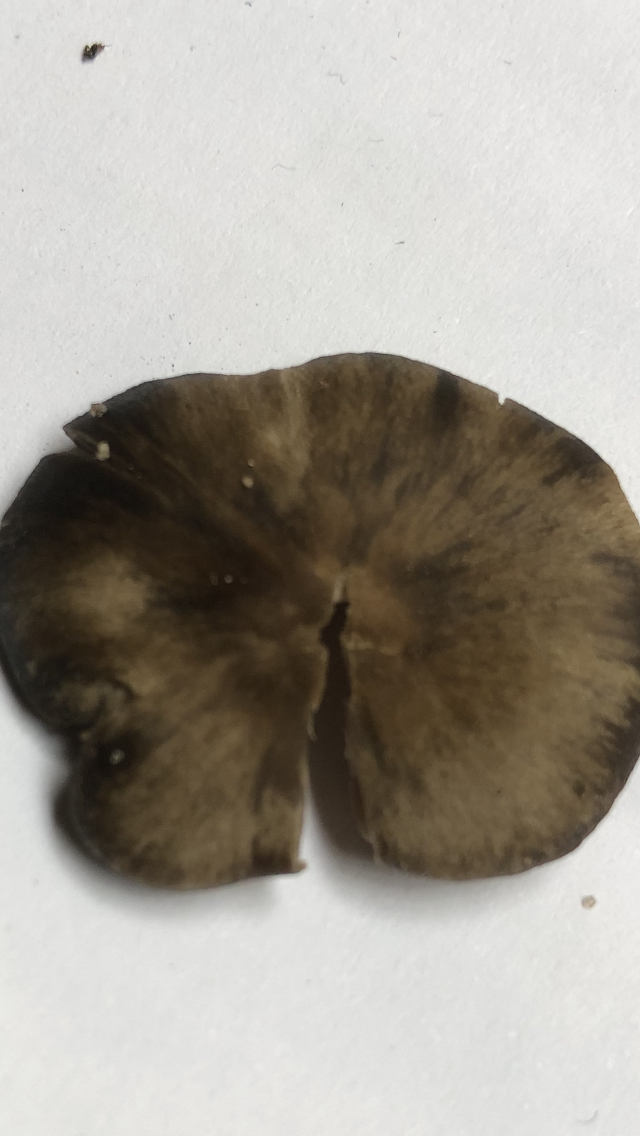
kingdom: Fungi
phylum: Basidiomycota
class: Agaricomycetes
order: Agaricales
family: Entolomataceae
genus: Entoloma
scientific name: Entoloma vernum
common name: vår-rødblad
